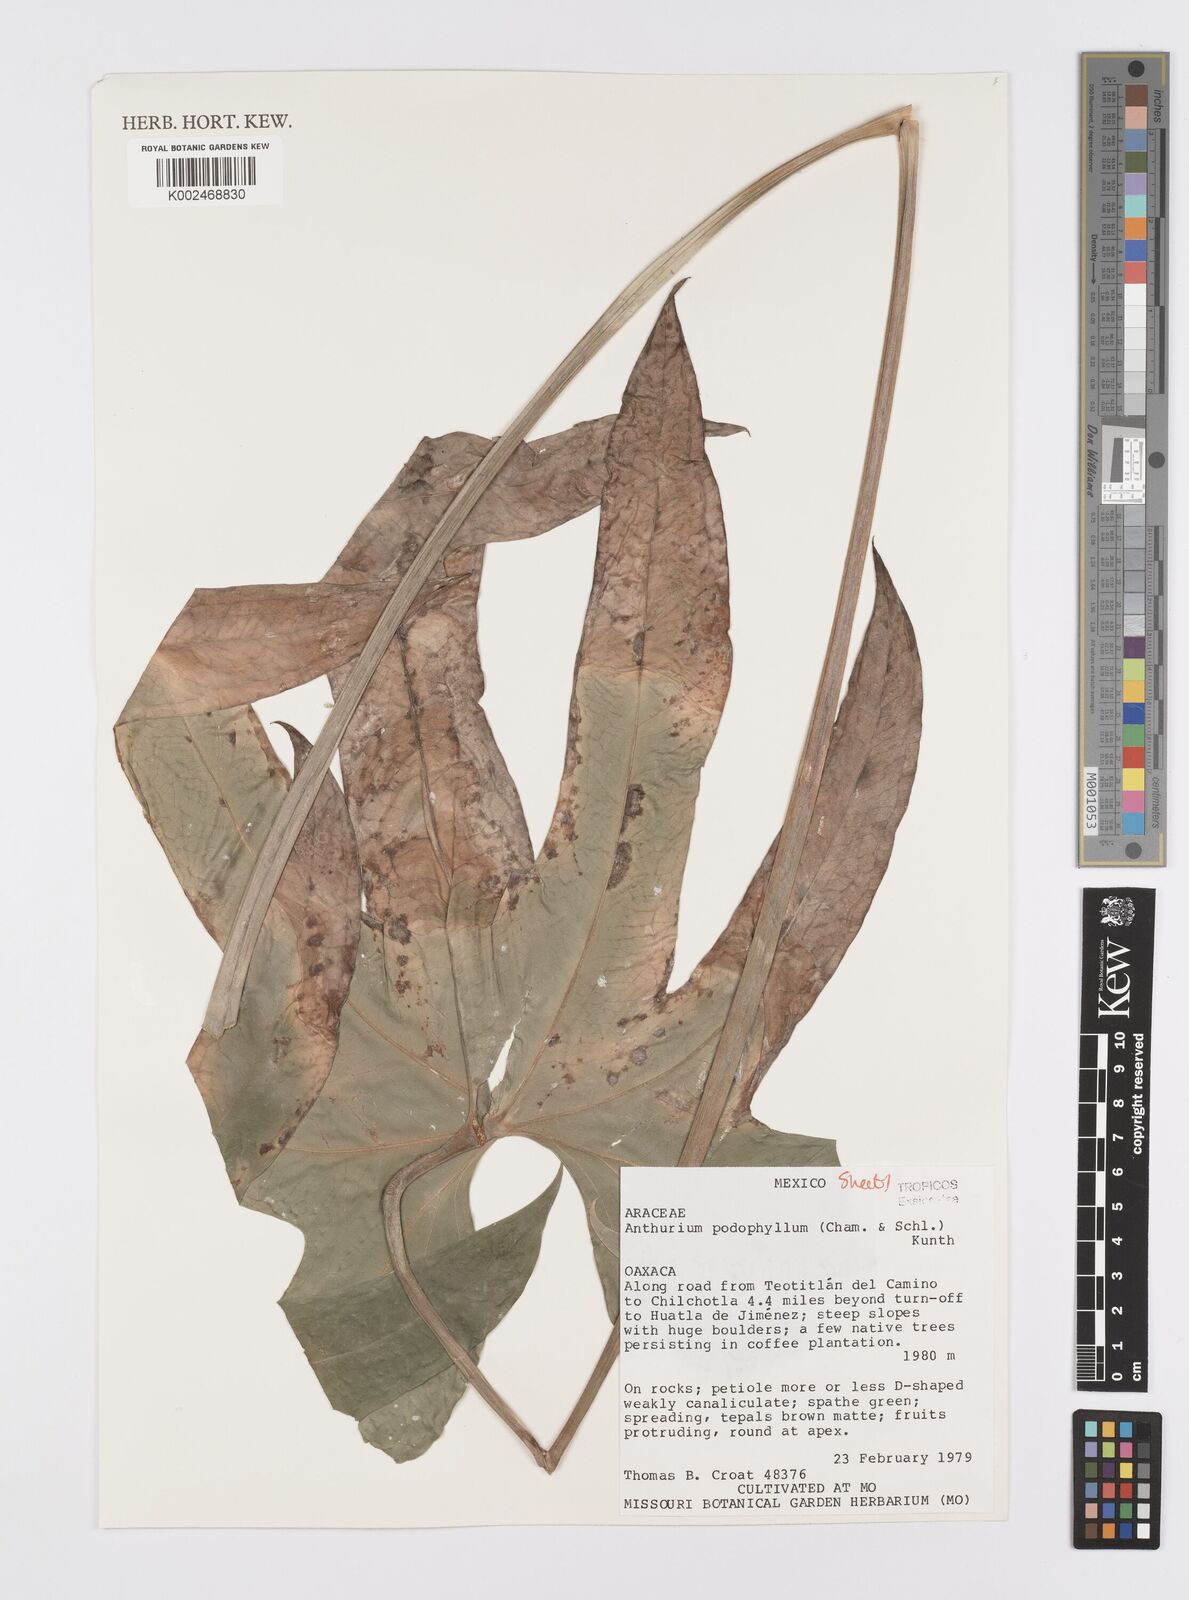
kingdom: Plantae
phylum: Tracheophyta
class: Liliopsida
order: Alismatales
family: Araceae
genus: Anthurium
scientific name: Anthurium podophyllum
